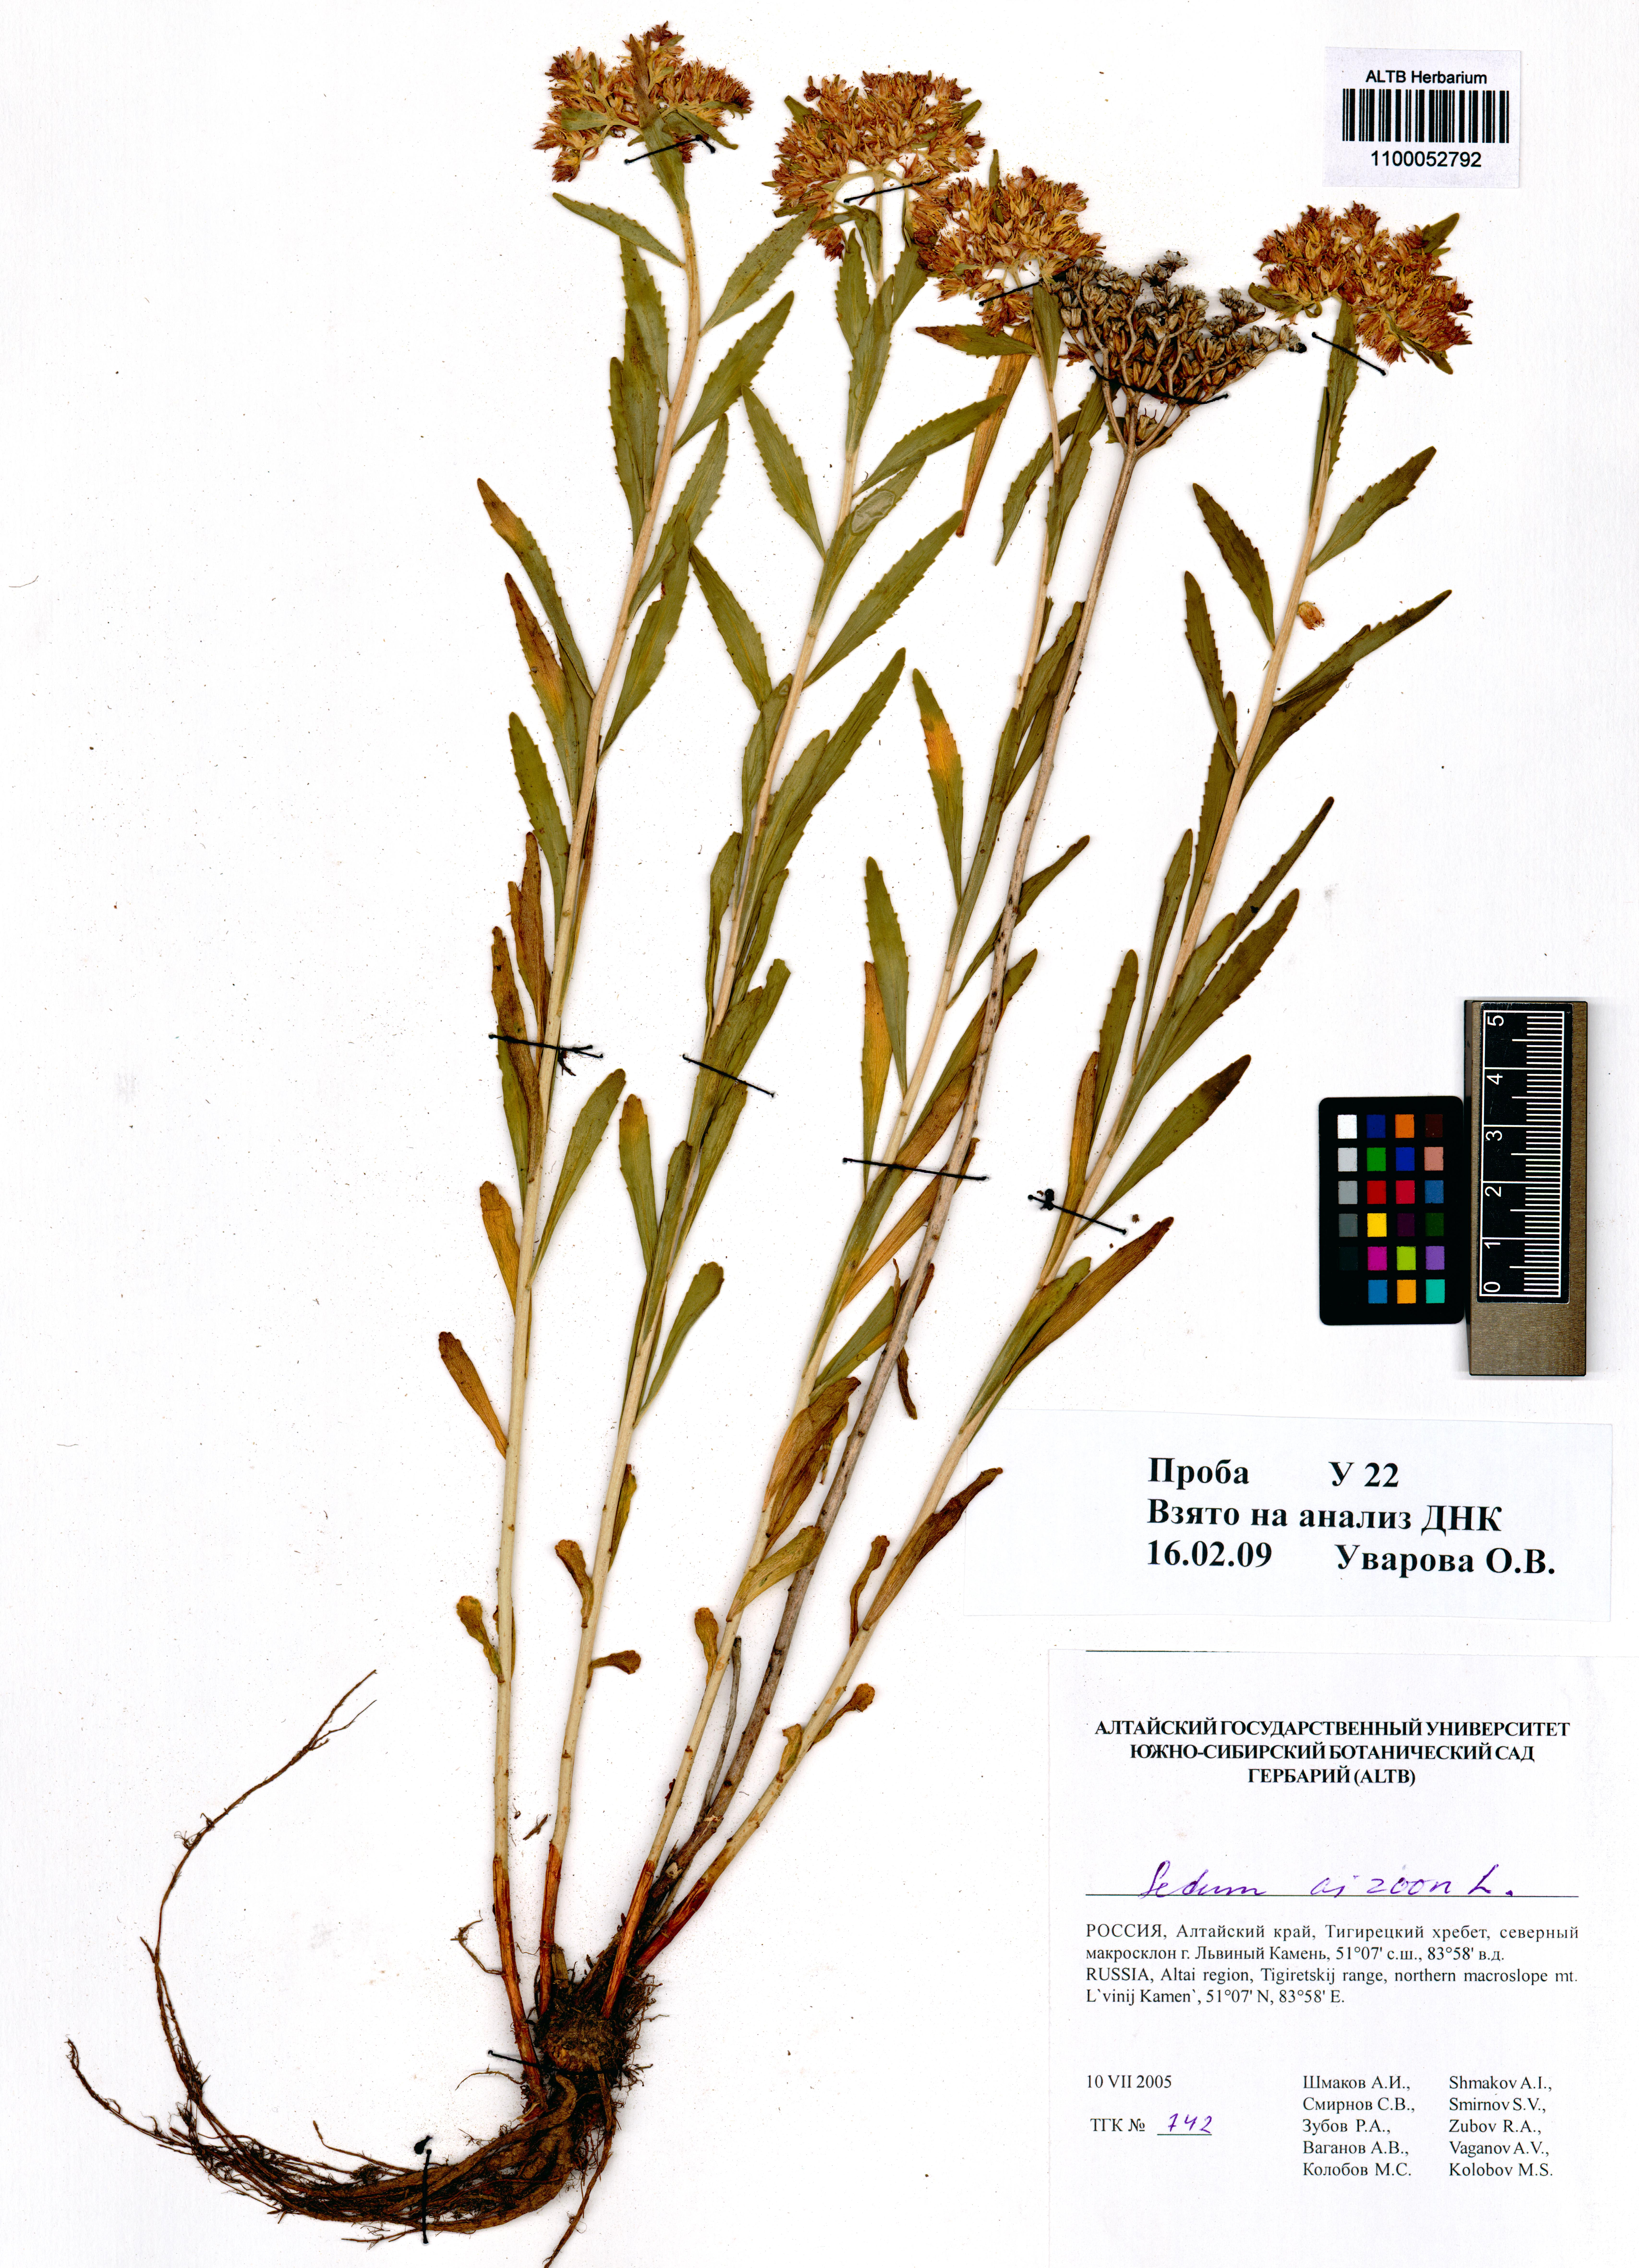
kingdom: Plantae
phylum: Tracheophyta
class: Magnoliopsida
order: Saxifragales
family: Crassulaceae
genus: Phedimus
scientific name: Phedimus aizoon
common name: Orpin aizoon
